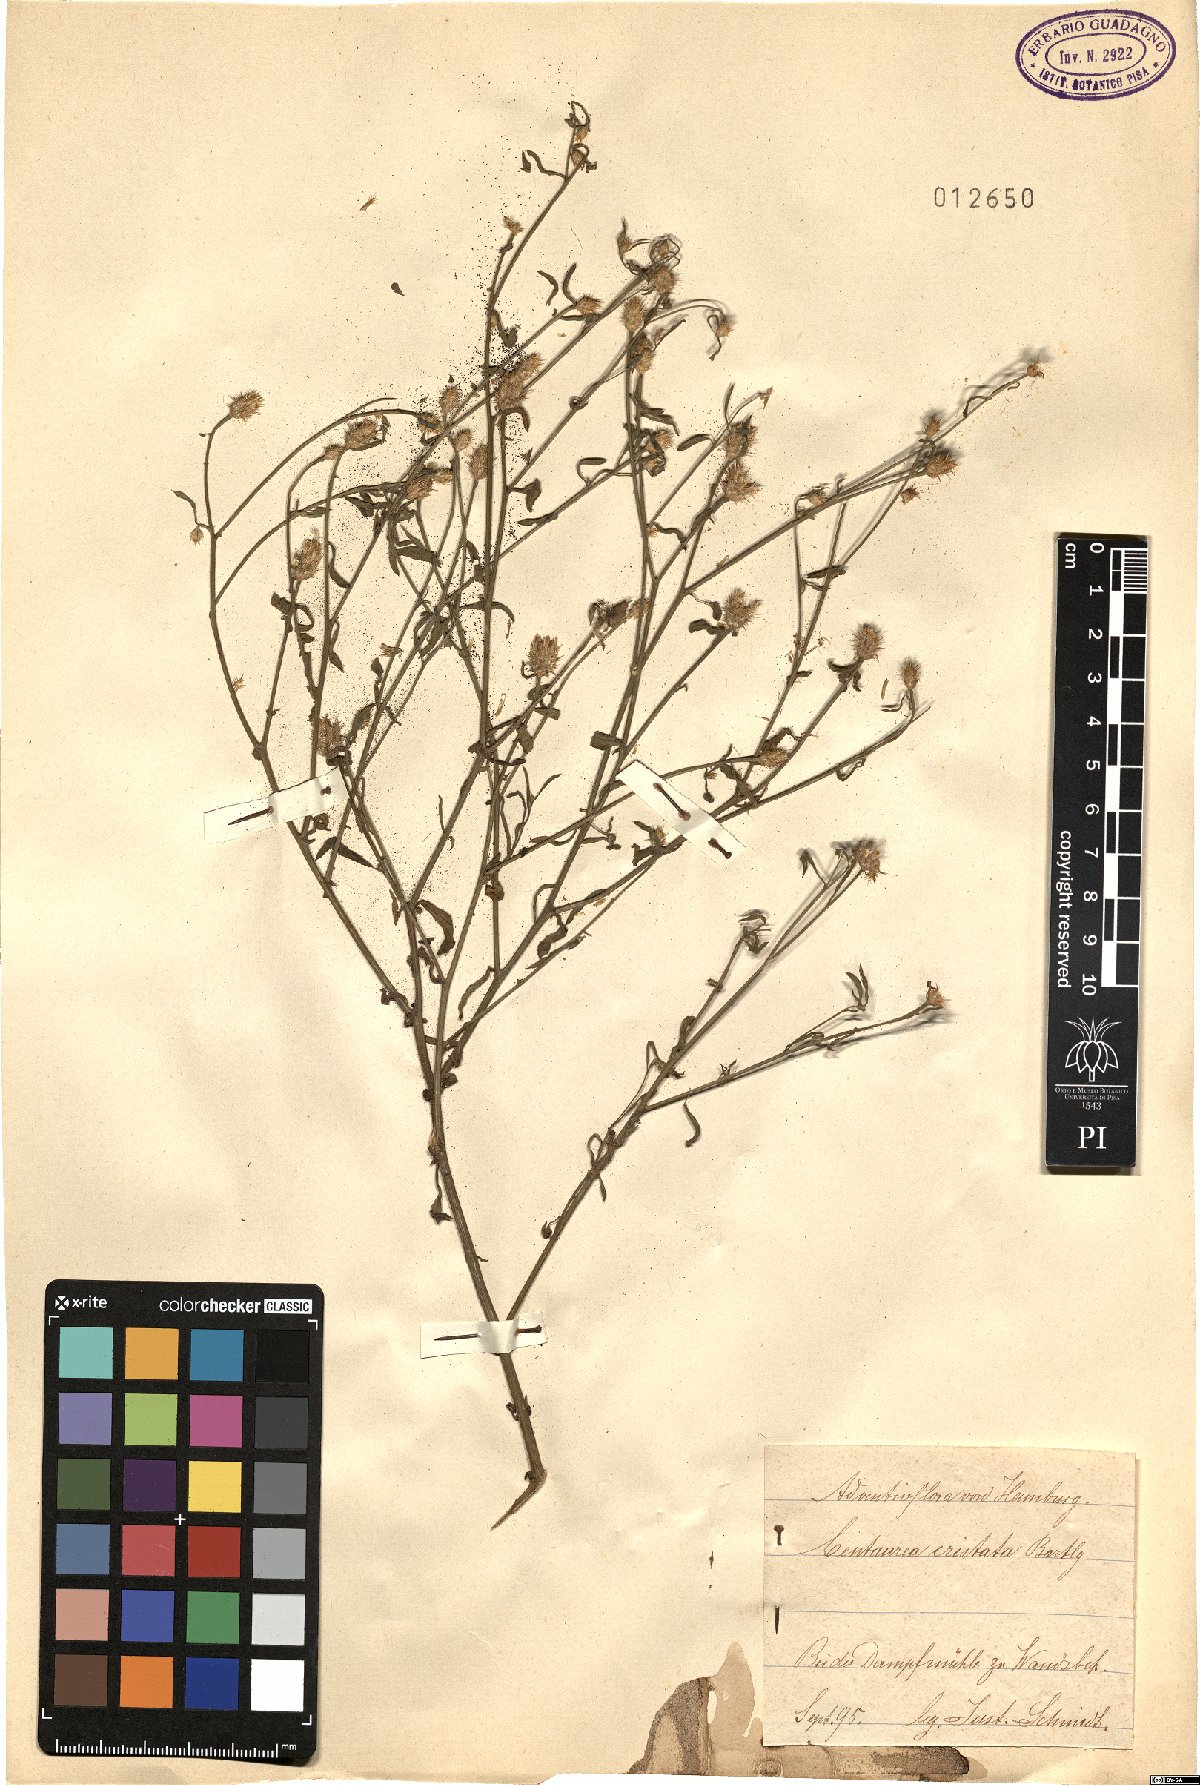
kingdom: Plantae
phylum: Tracheophyta
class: Magnoliopsida
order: Asterales
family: Asteraceae
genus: Centaurea
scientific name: Centaurea cristata
